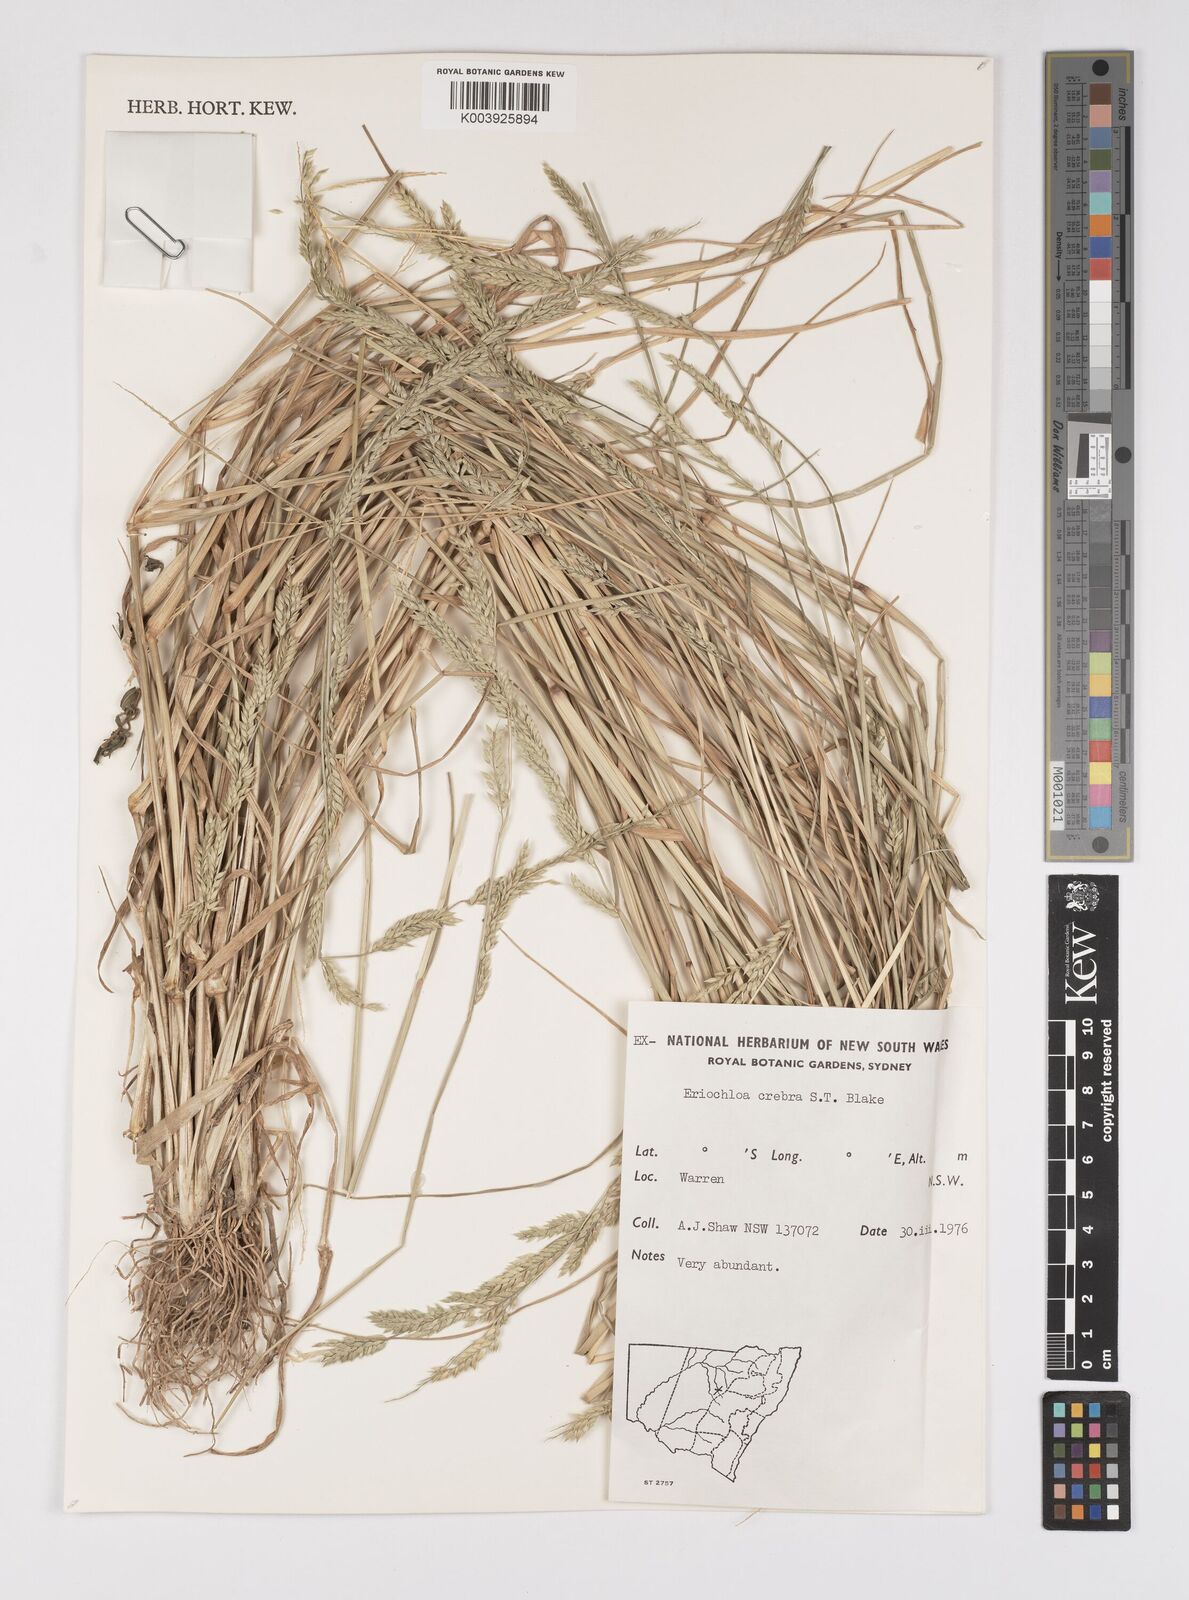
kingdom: Plantae
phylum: Tracheophyta
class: Liliopsida
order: Poales
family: Poaceae
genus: Eriochloa
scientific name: Eriochloa crebra
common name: Cup grass
